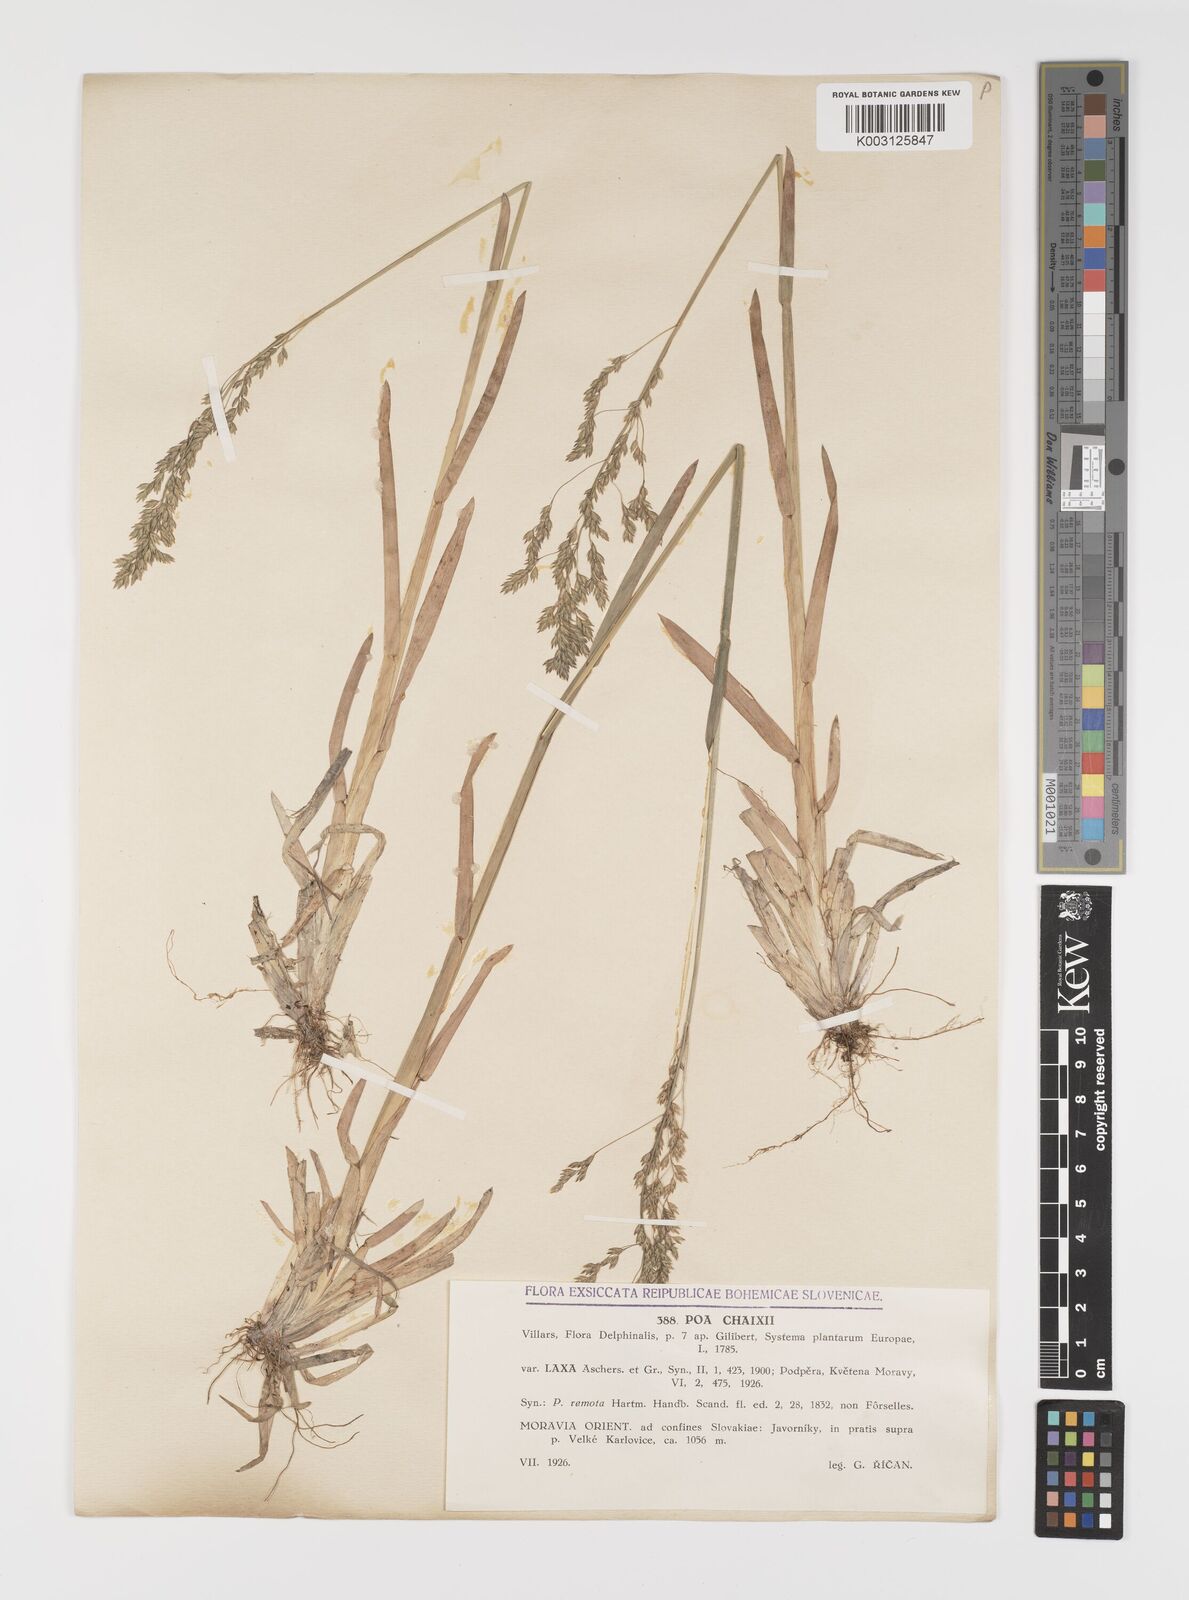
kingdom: Plantae
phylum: Tracheophyta
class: Liliopsida
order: Poales
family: Poaceae
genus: Poa
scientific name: Poa remota
